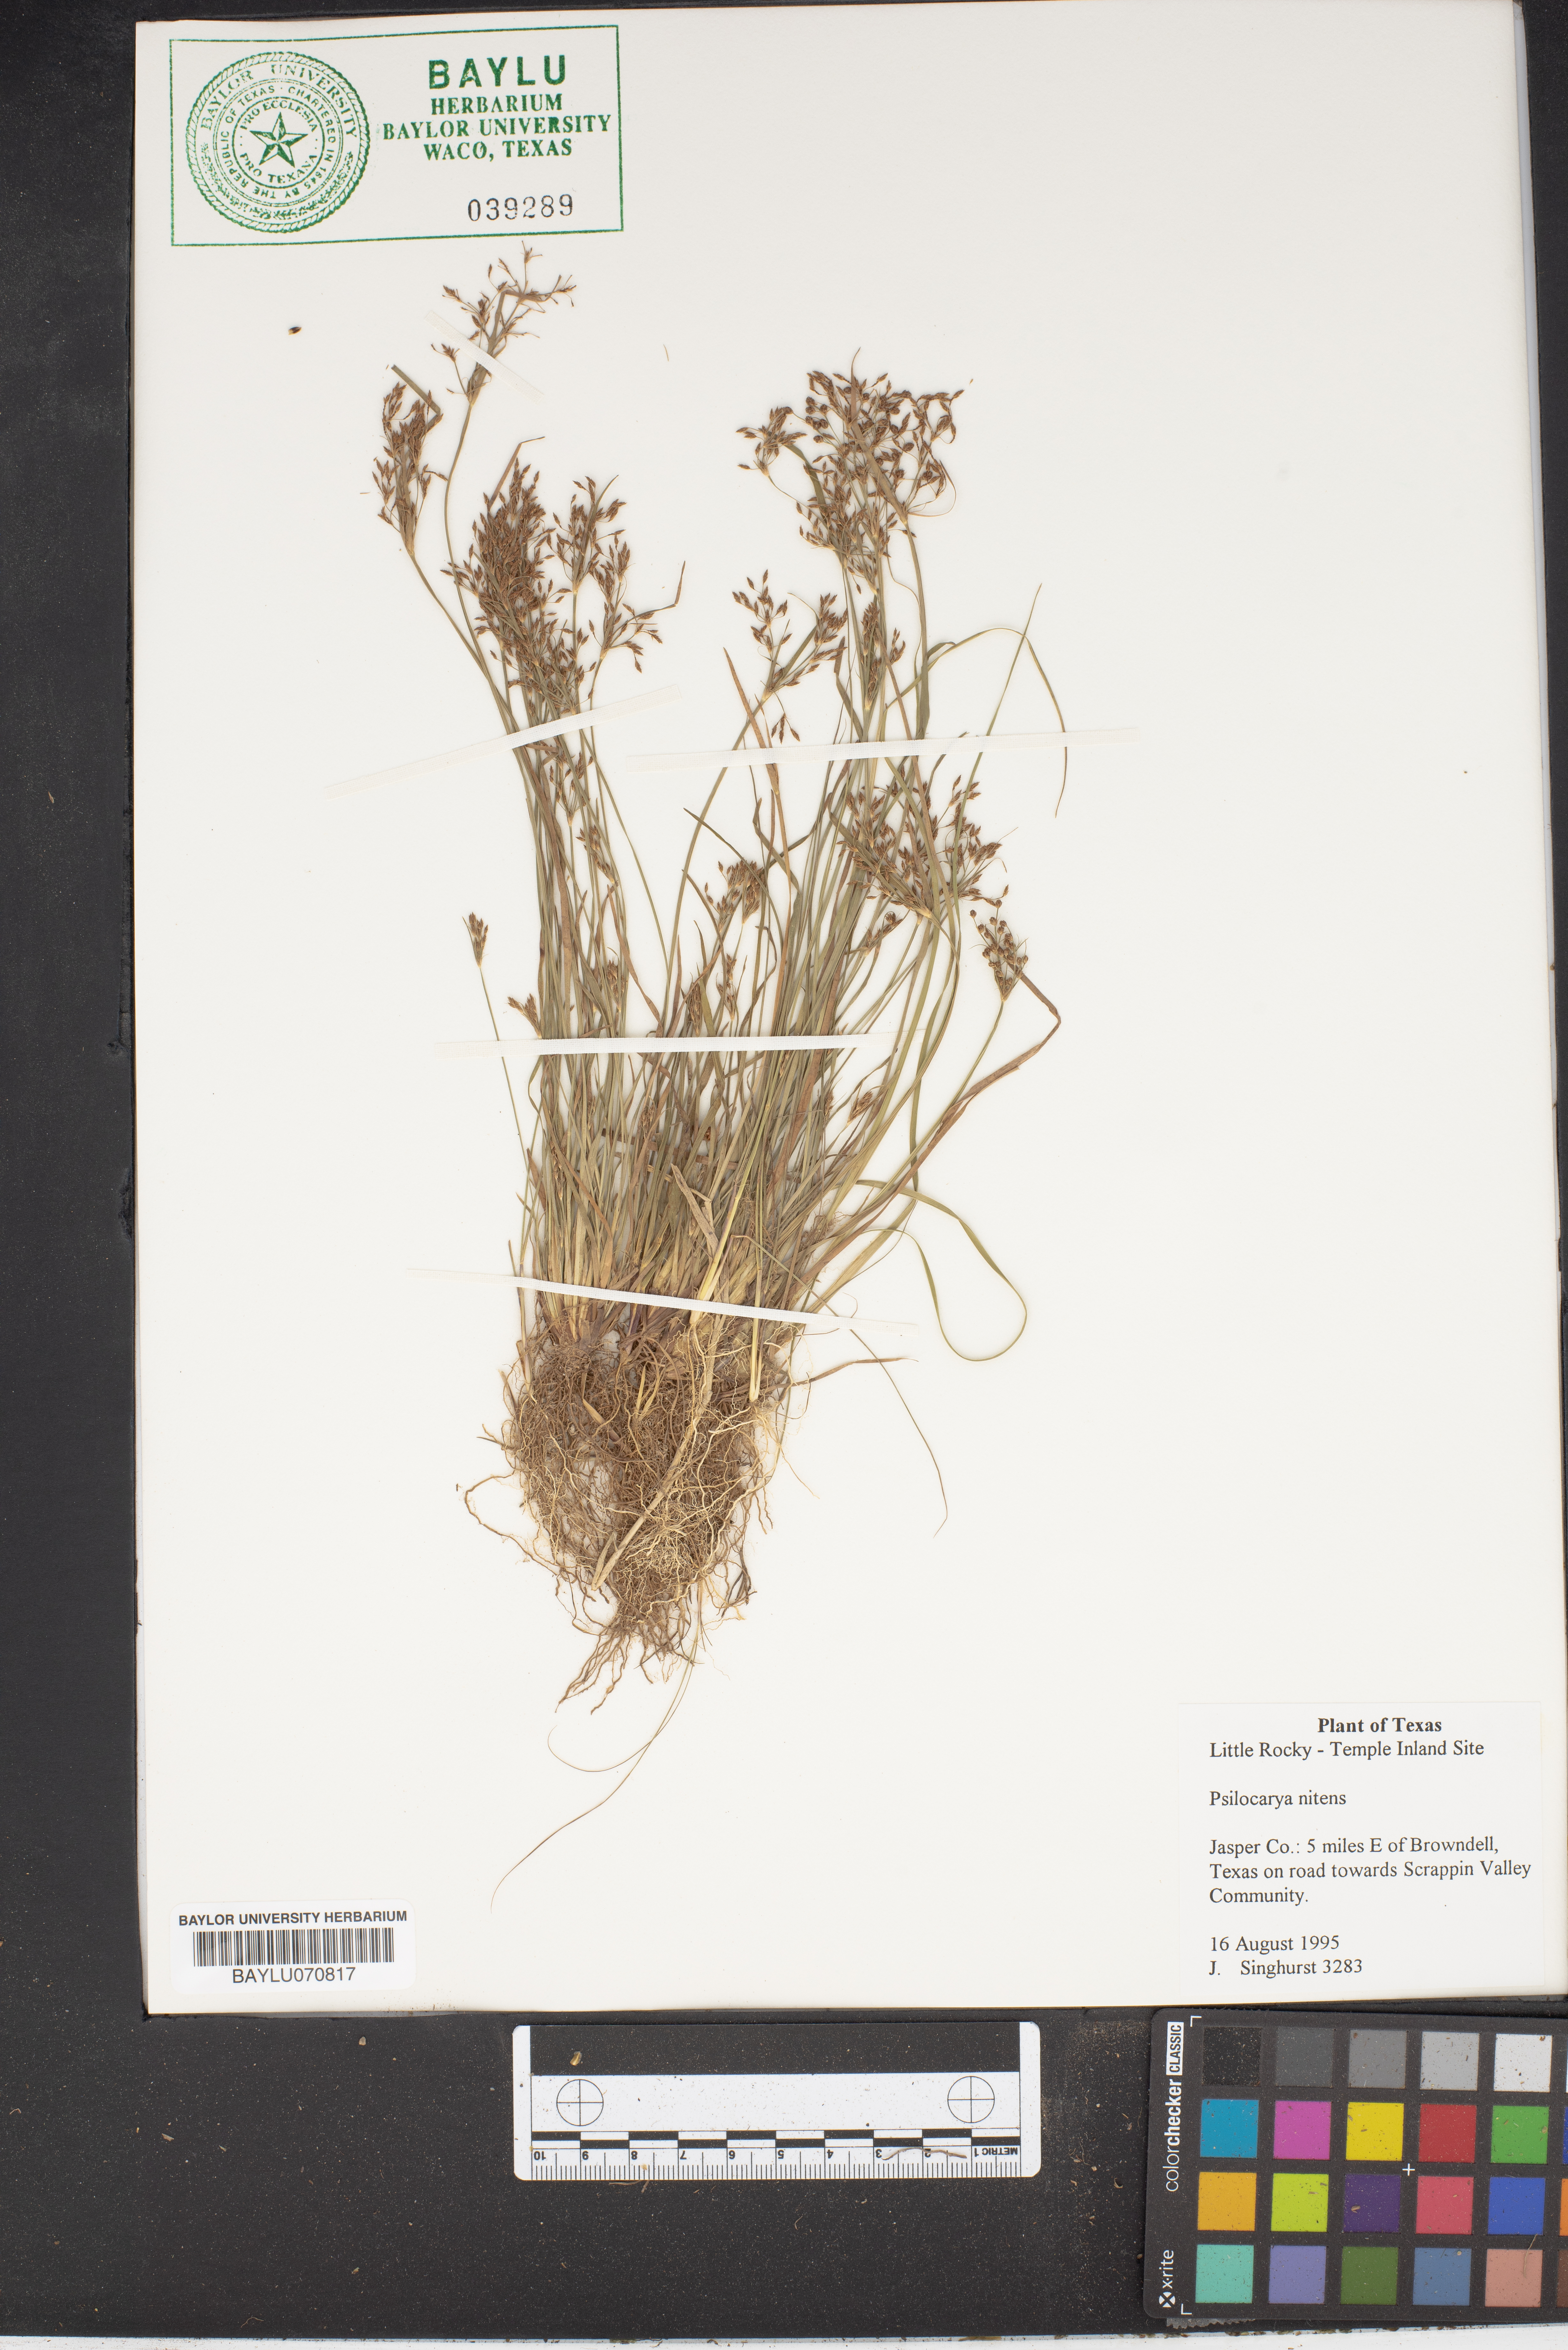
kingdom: Plantae
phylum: Tracheophyta
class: Liliopsida
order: Poales
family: Cyperaceae
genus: Rhynchospora
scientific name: Rhynchospora nitens
